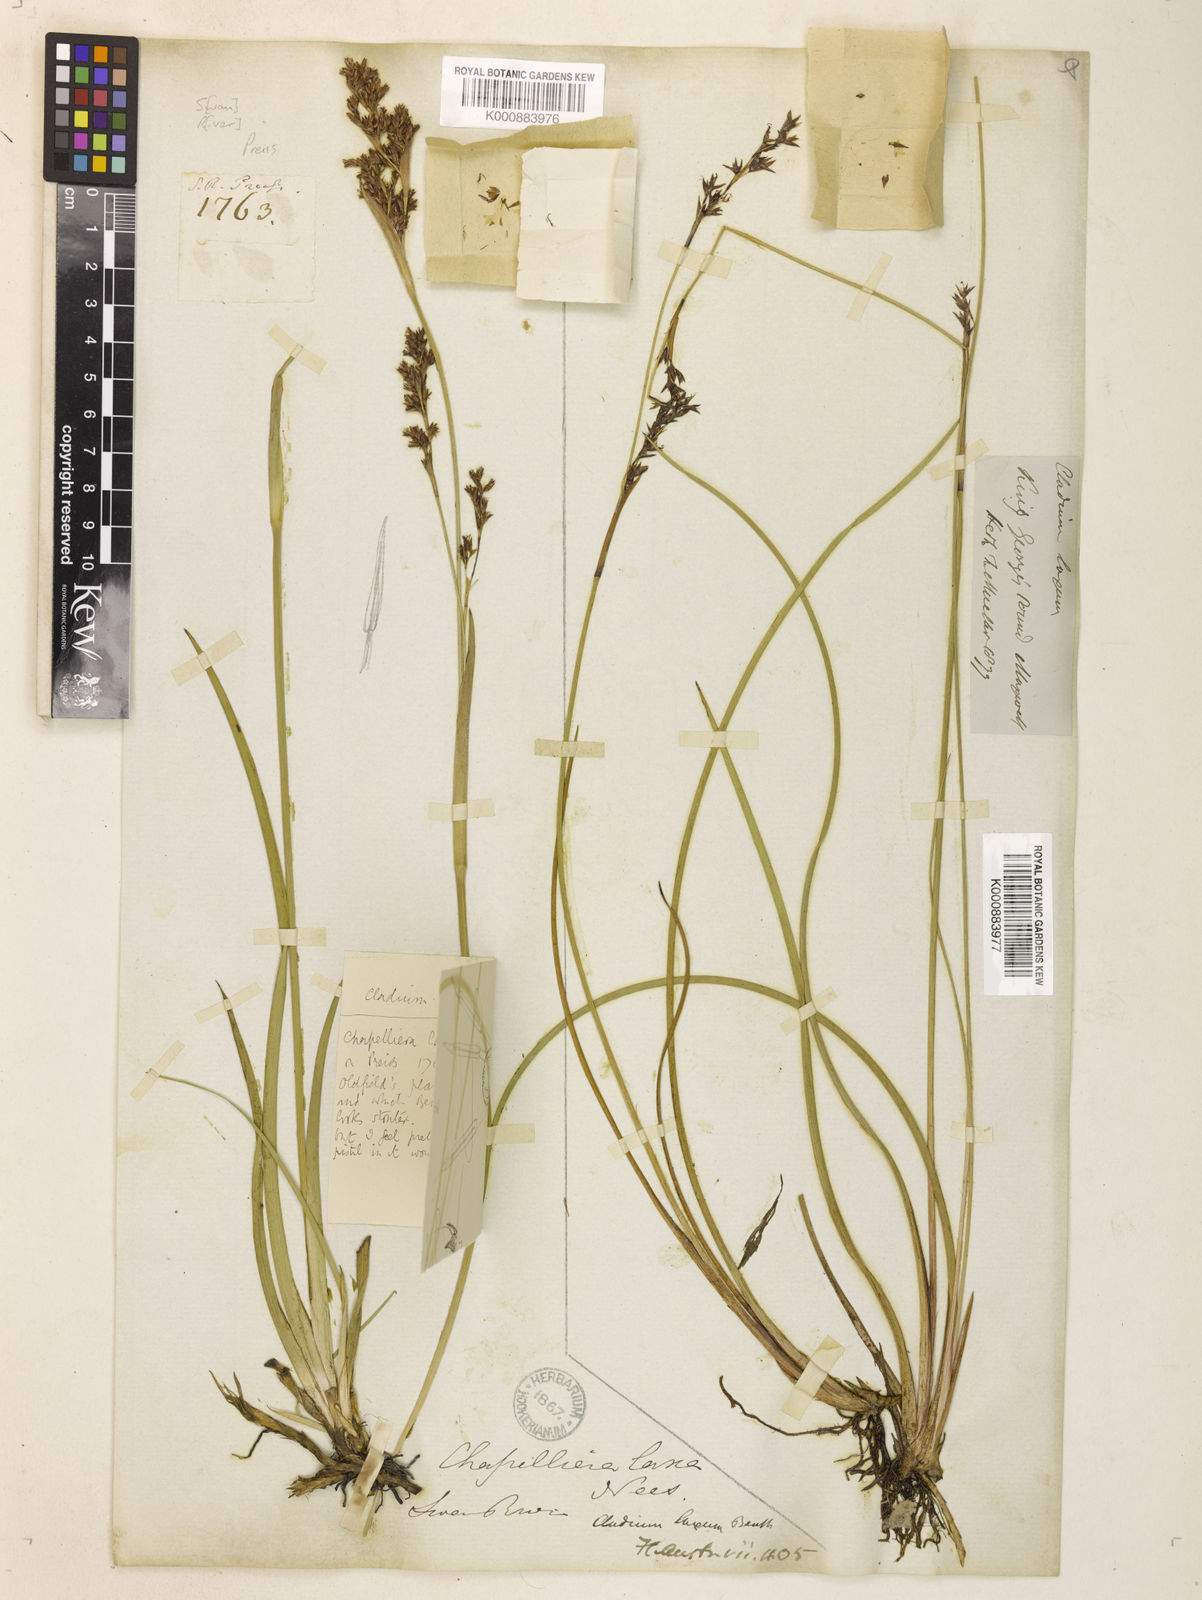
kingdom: Plantae
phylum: Tracheophyta
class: Liliopsida
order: Poales
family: Cyperaceae
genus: Machaerina
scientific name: Machaerina laxa
